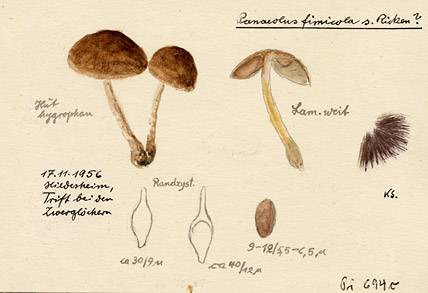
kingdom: Fungi
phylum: Basidiomycota
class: Agaricomycetes
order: Agaricales
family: Bolbitiaceae
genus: Panaeolus
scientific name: Panaeolus fimicola
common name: Turf mottlegill
